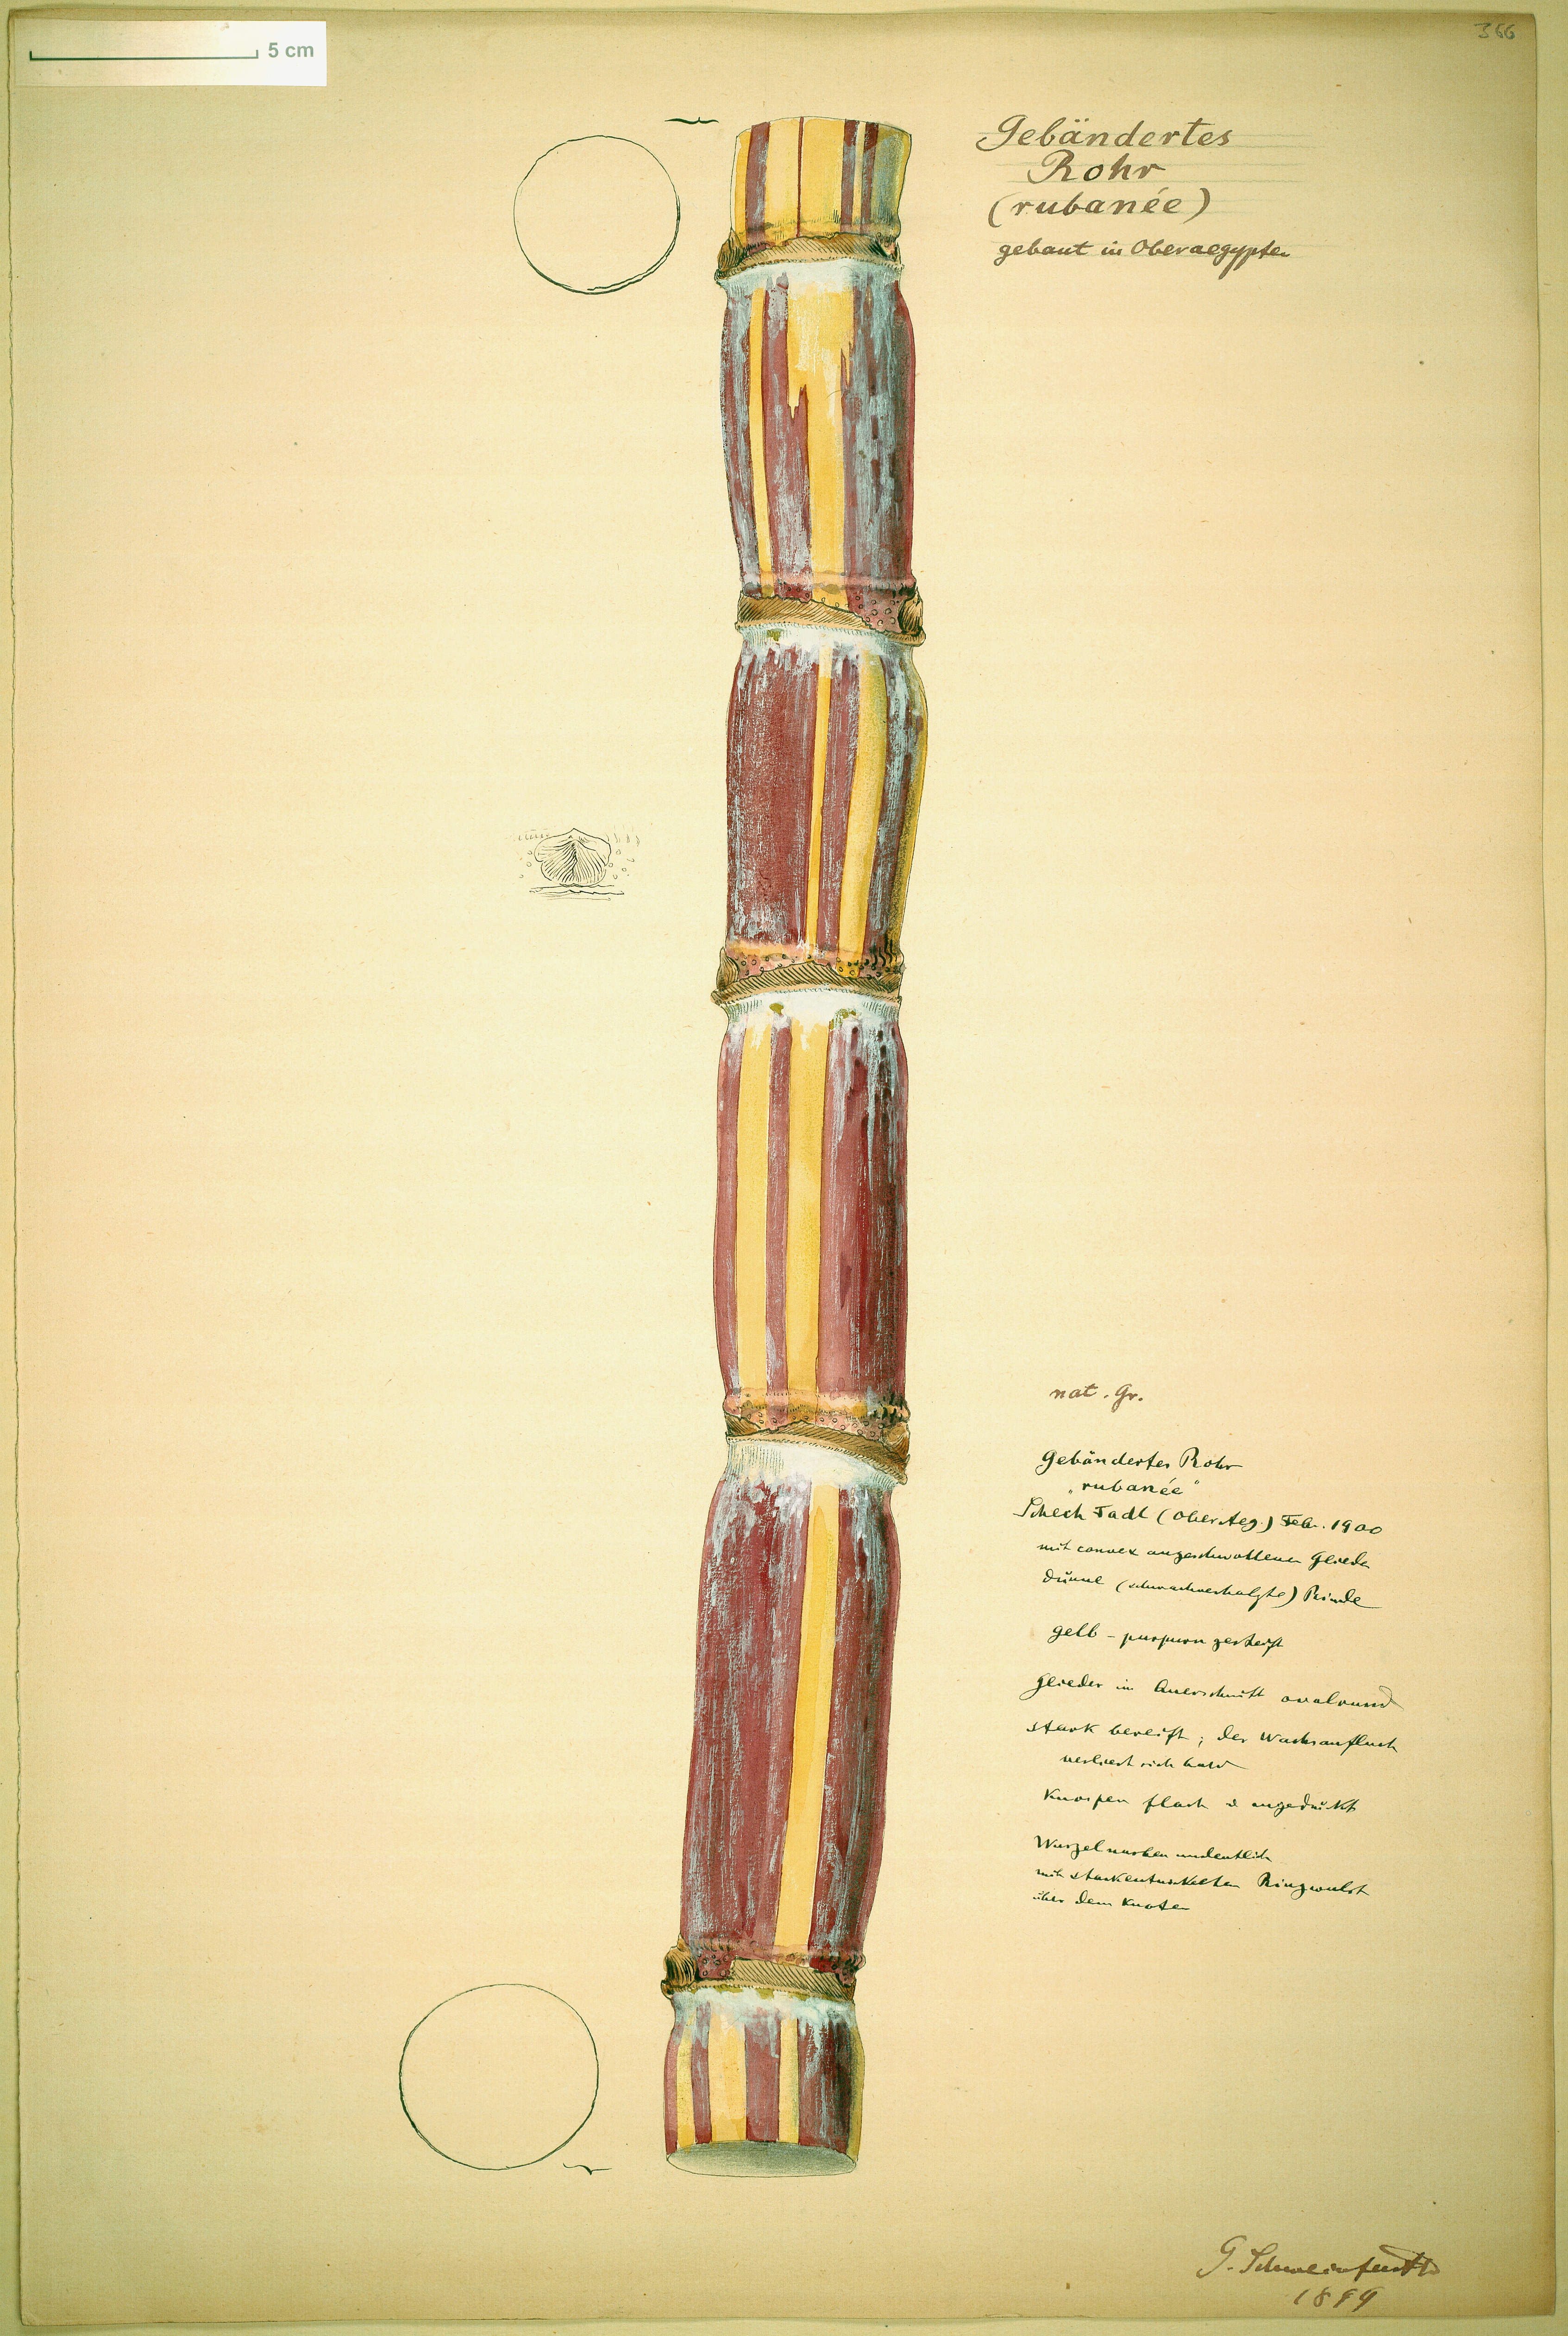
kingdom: Plantae
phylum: Tracheophyta
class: Liliopsida
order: Poales
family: Poaceae
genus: Saccharum
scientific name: Saccharum officinarum
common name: Sugarcane
